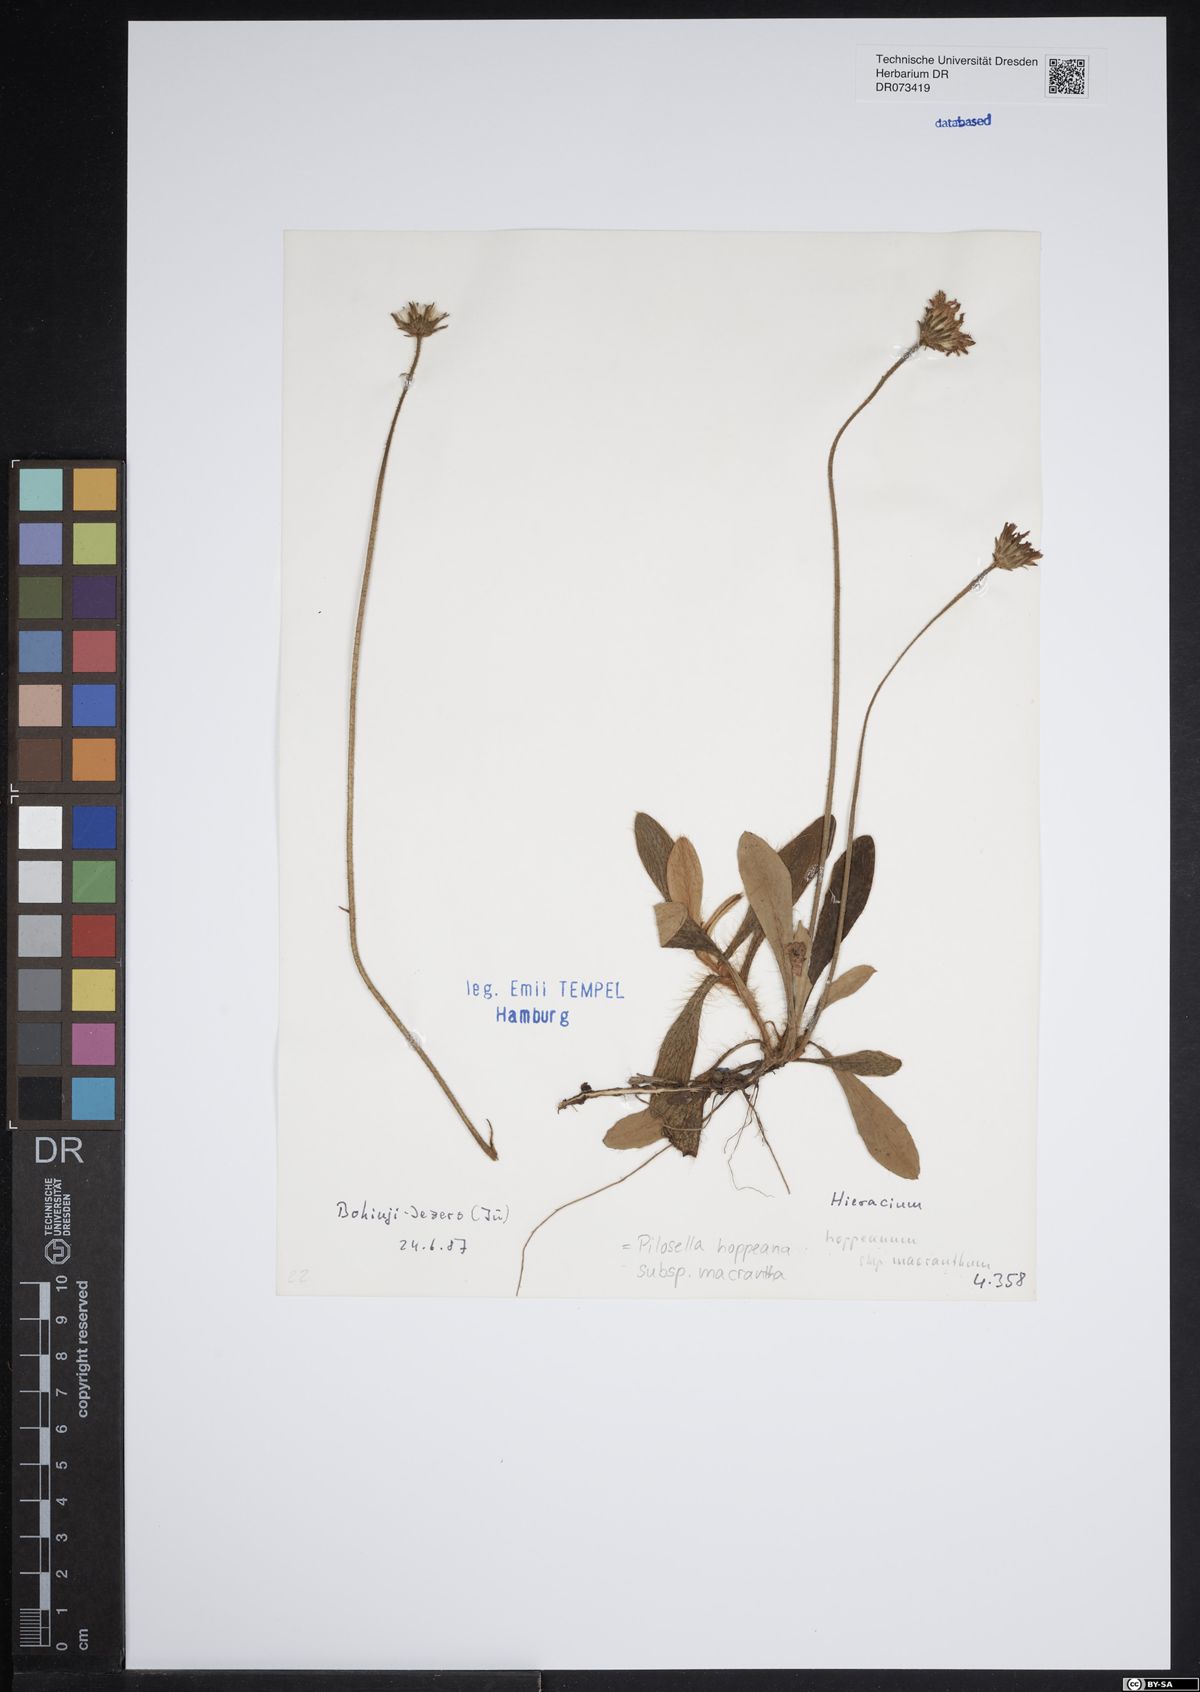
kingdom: Plantae
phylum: Tracheophyta
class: Magnoliopsida
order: Asterales
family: Asteraceae
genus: Pilosella
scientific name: Pilosella hoppeana
